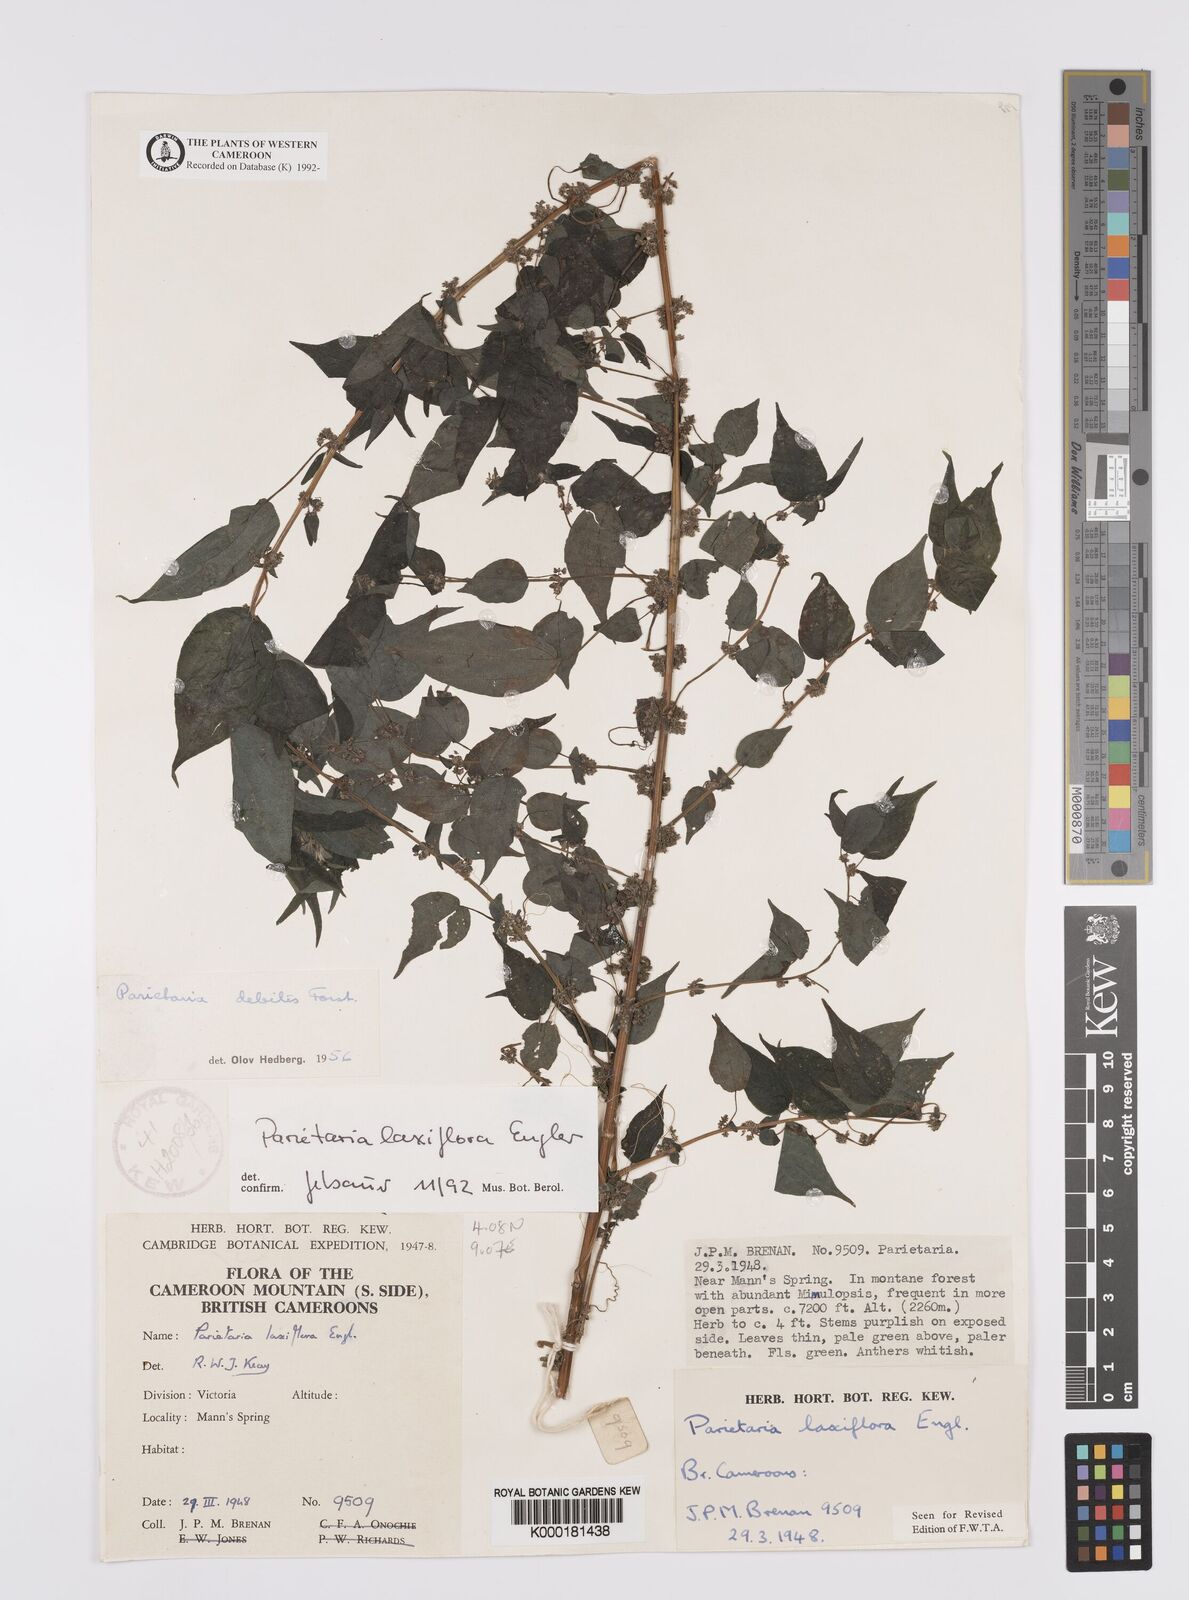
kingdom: Plantae
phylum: Tracheophyta
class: Magnoliopsida
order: Rosales
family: Urticaceae
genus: Parietaria
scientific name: Parietaria debilis
